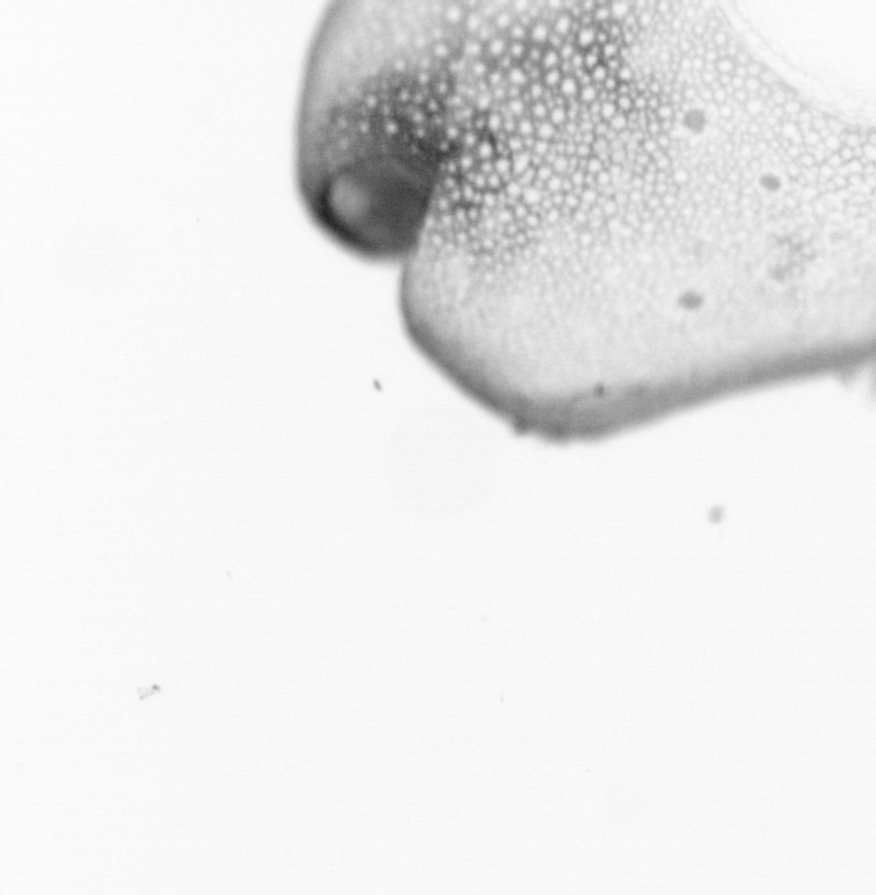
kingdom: Animalia
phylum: Chordata
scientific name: Chordata
